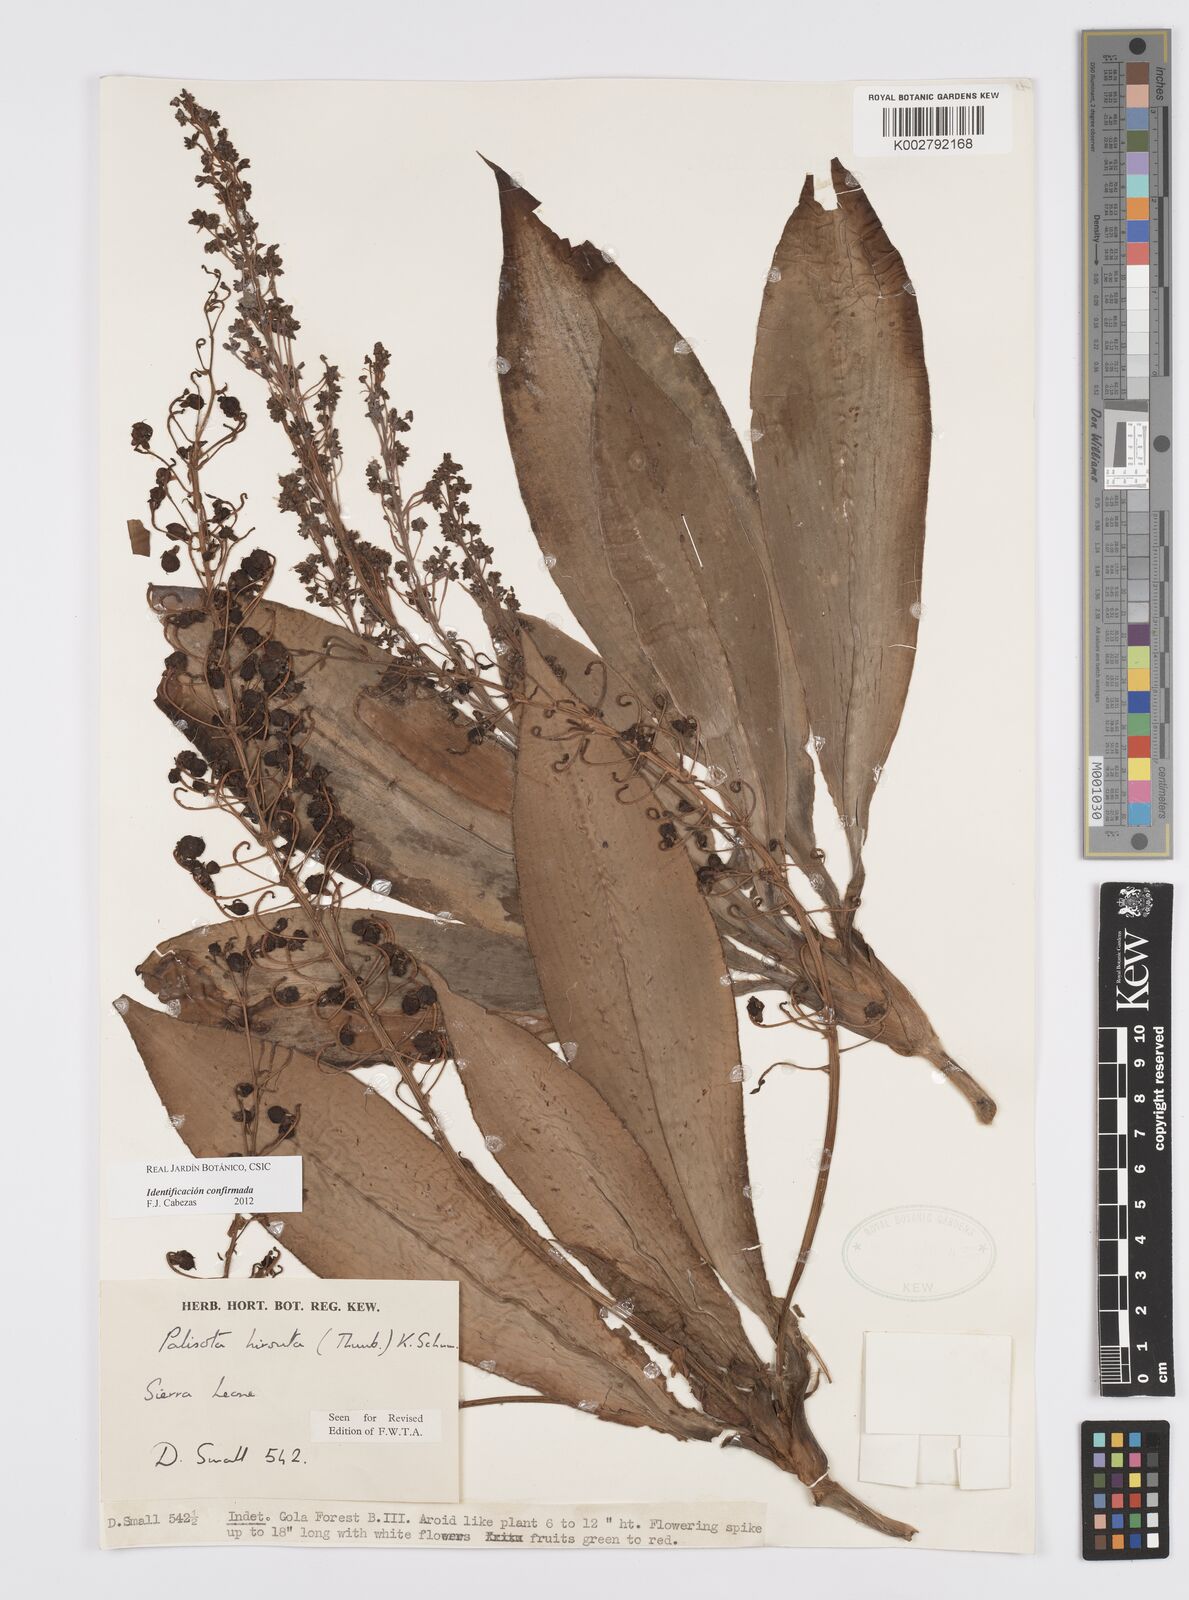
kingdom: Plantae
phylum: Tracheophyta
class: Liliopsida
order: Commelinales
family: Commelinaceae
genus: Palisota
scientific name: Palisota hirsuta
